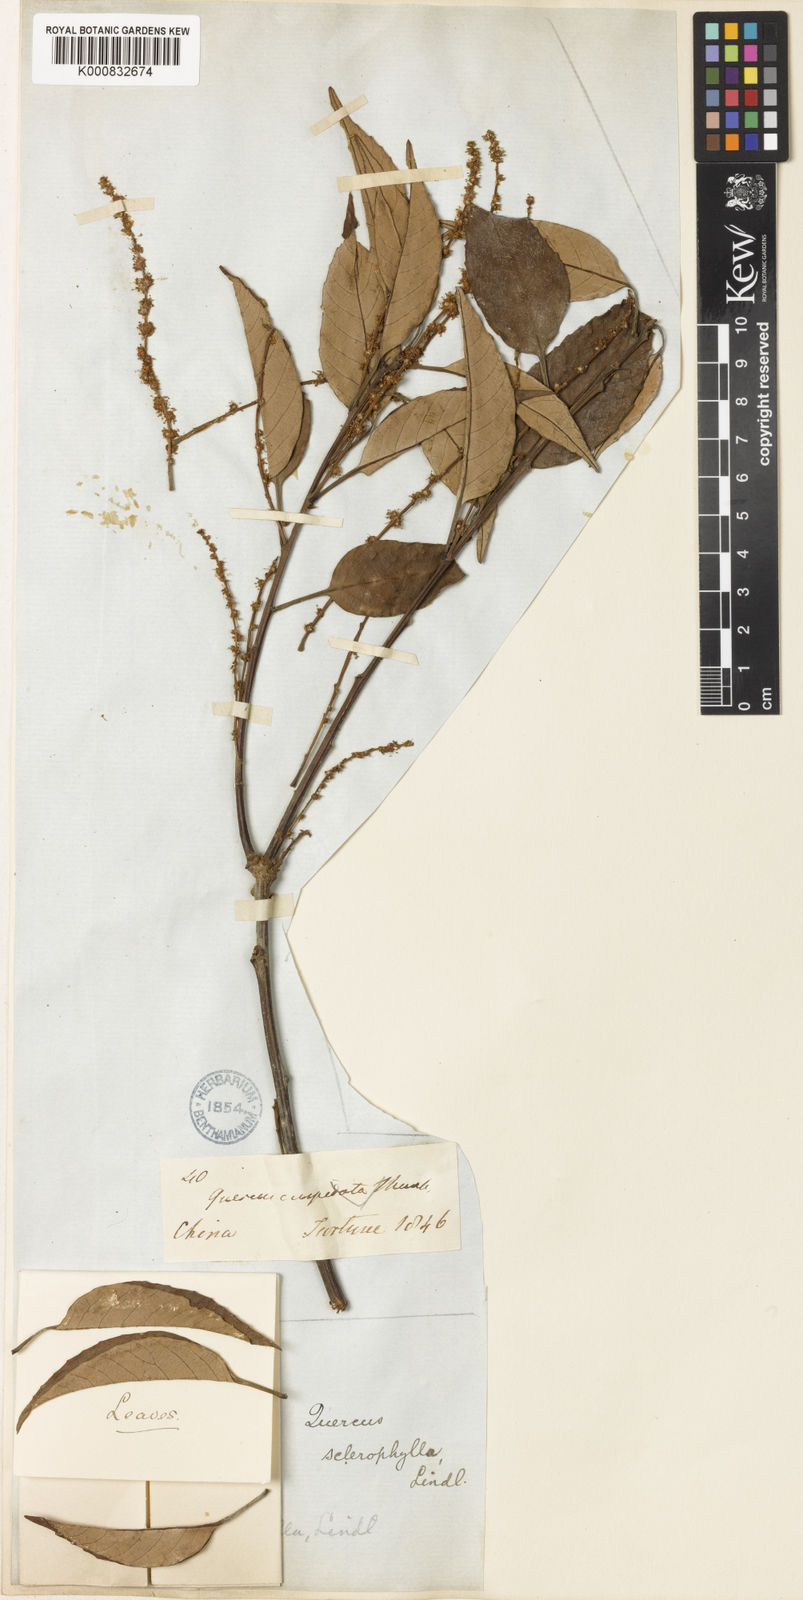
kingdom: Plantae
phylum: Tracheophyta
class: Magnoliopsida
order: Fagales
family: Fagaceae
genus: Castanopsis
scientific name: Castanopsis sclerophylla
